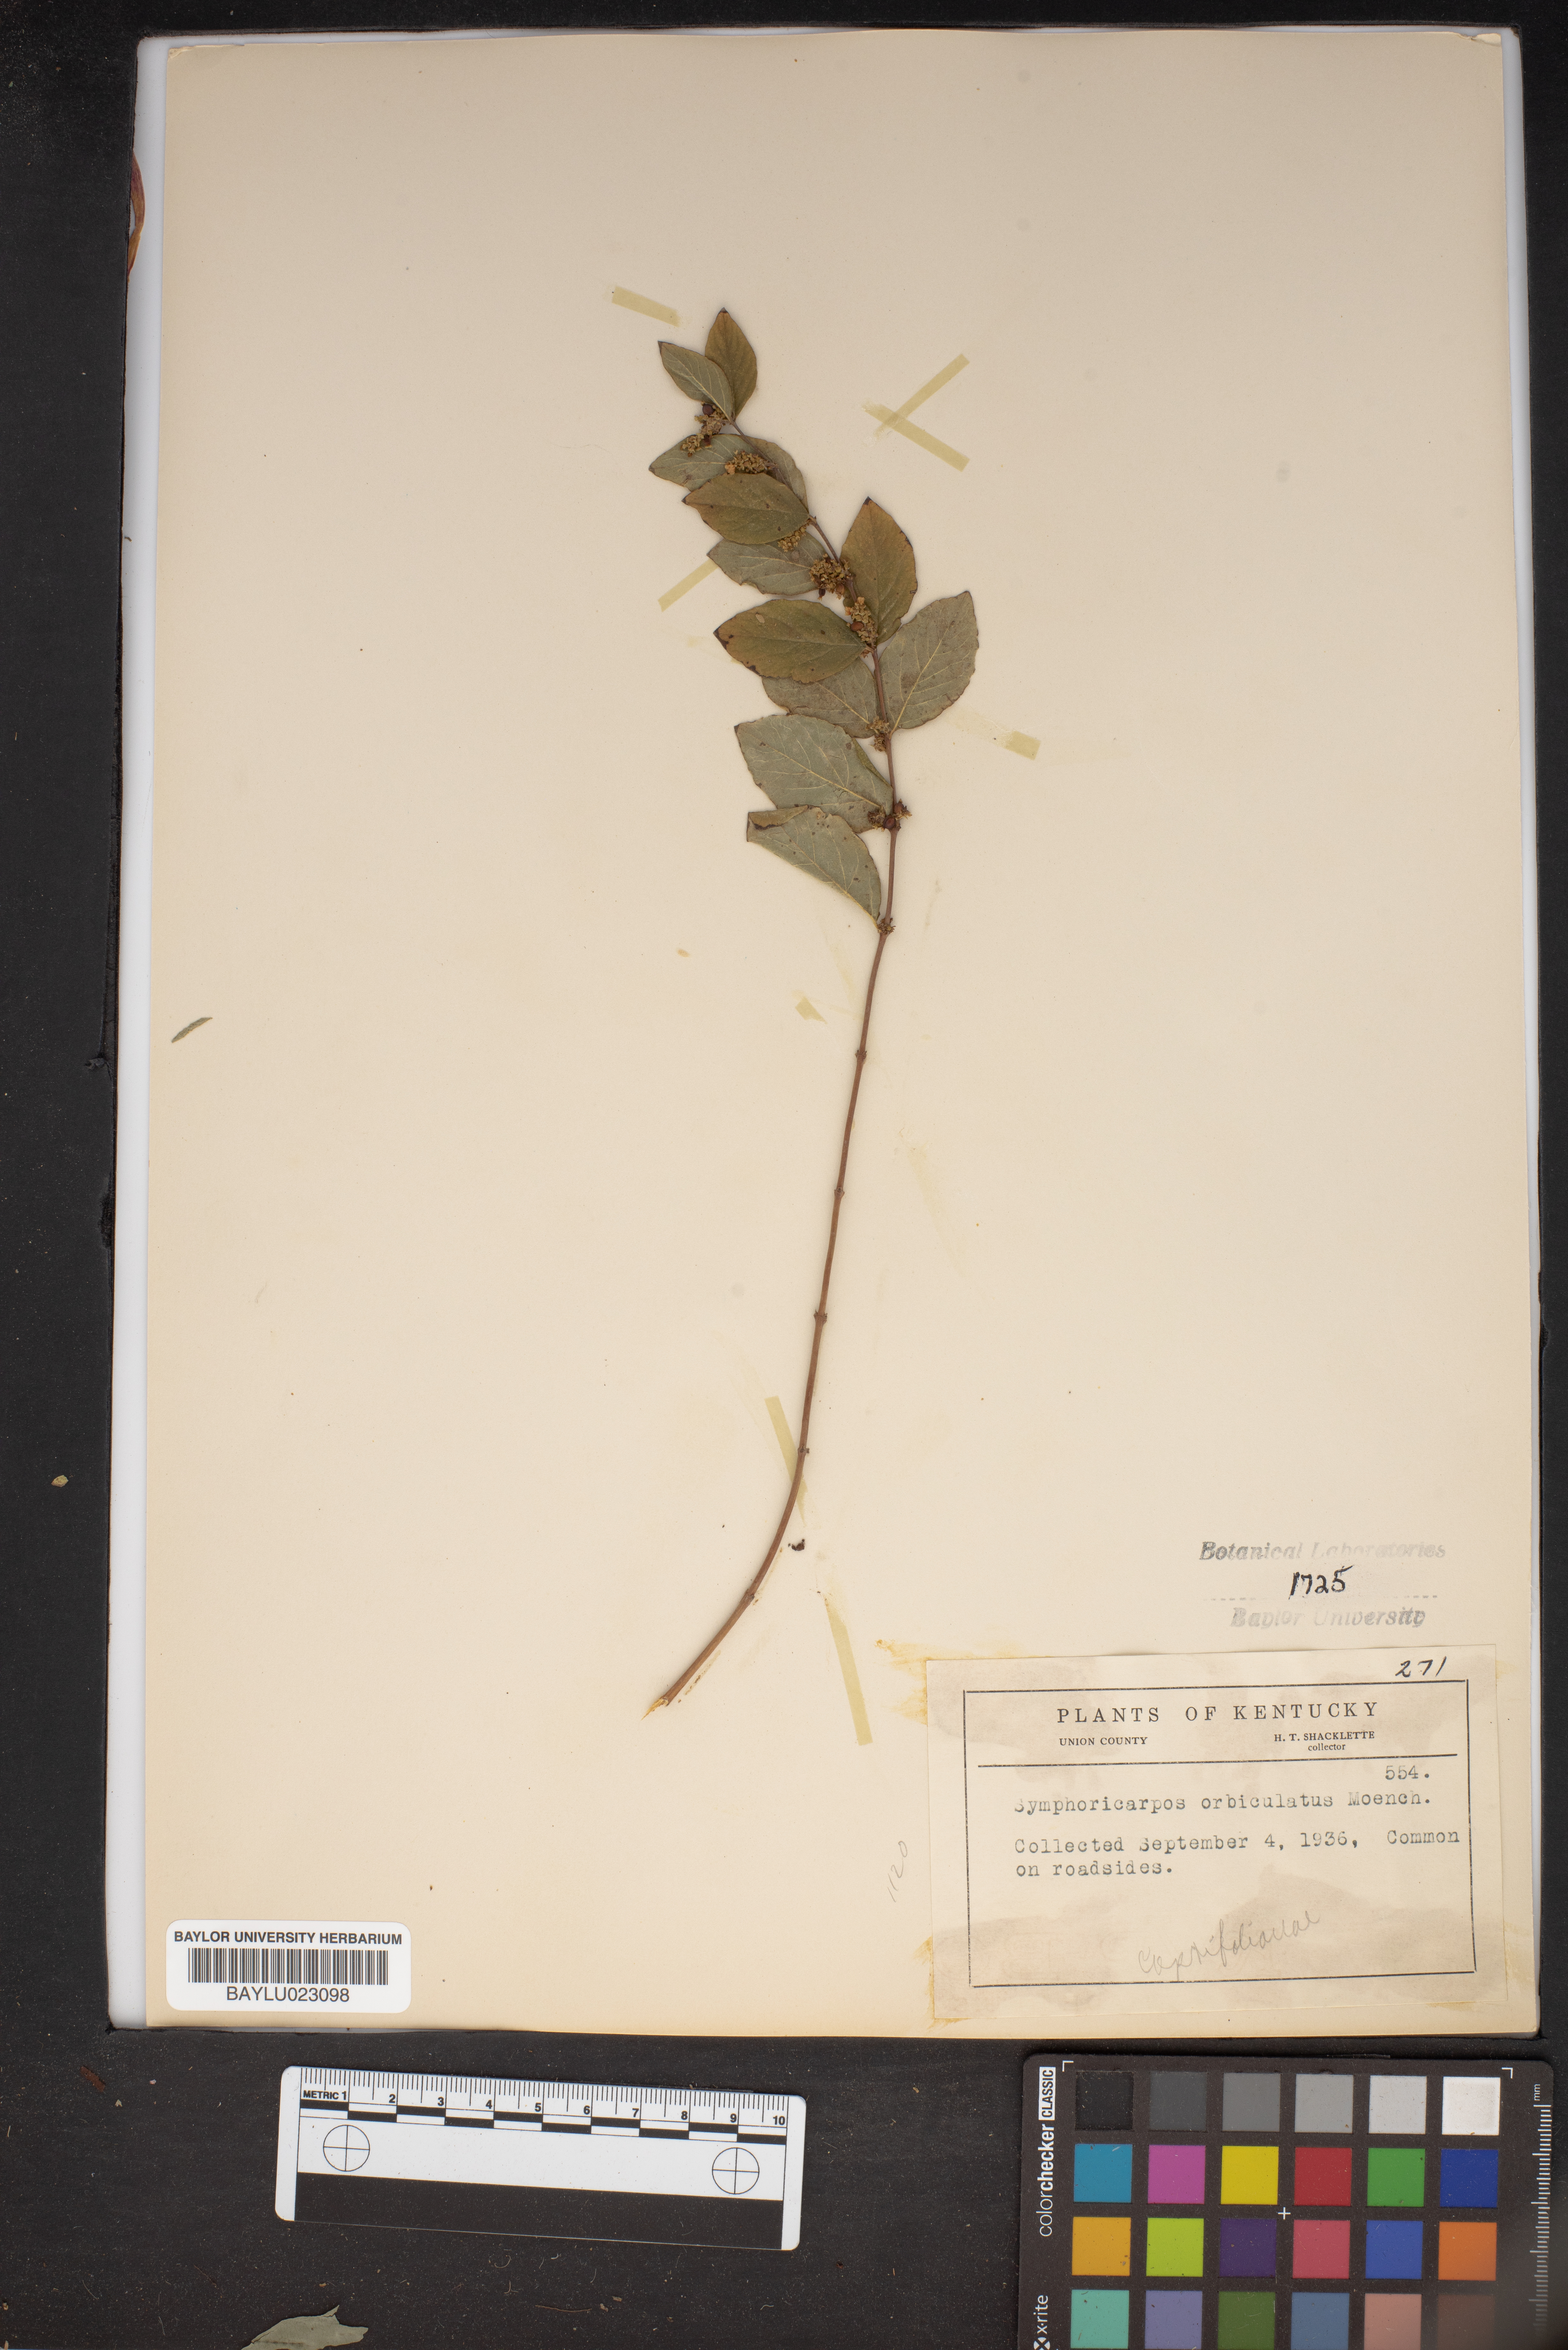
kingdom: Plantae
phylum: Tracheophyta
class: Magnoliopsida
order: Dipsacales
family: Caprifoliaceae
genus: Symphoricarpos
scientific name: Symphoricarpos orbiculatus
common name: Coralberry
